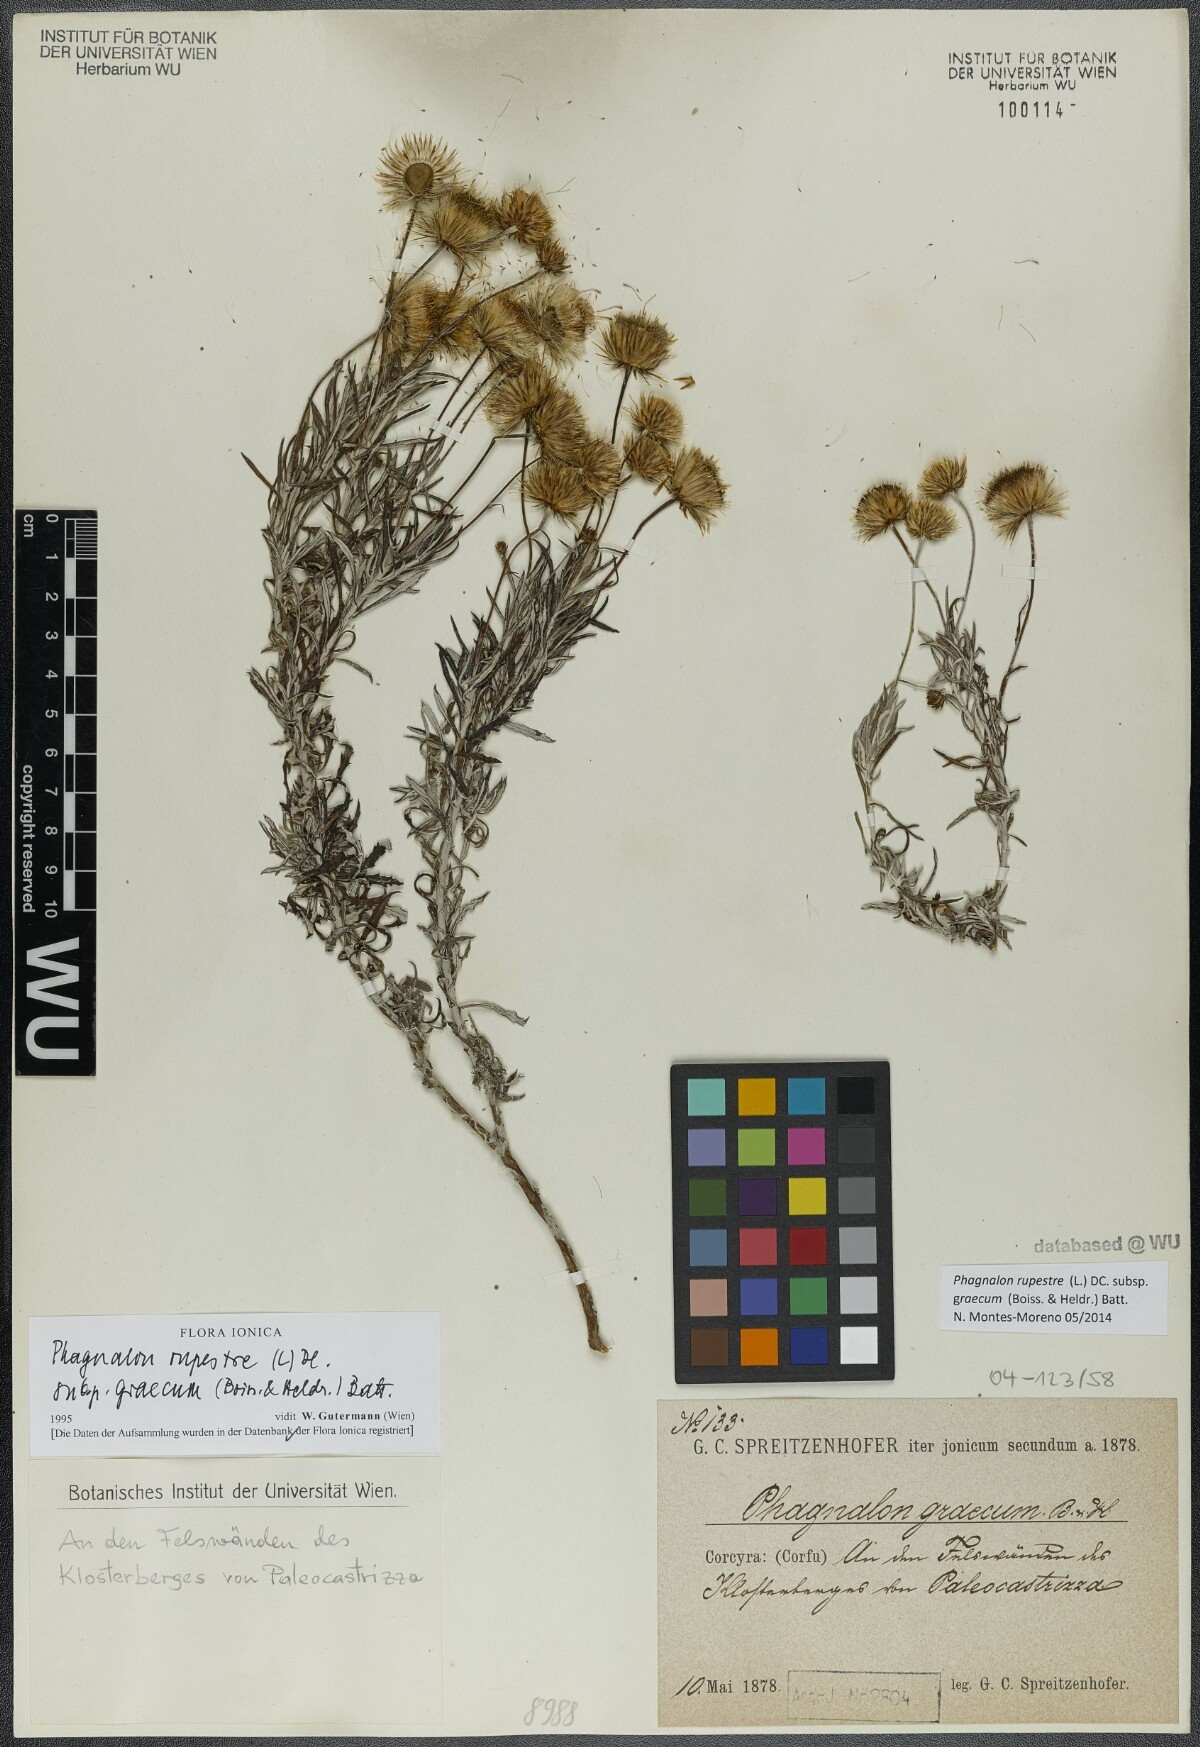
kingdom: Plantae
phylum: Tracheophyta
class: Magnoliopsida
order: Asterales
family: Asteraceae
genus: Phagnalon
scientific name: Phagnalon graecum
